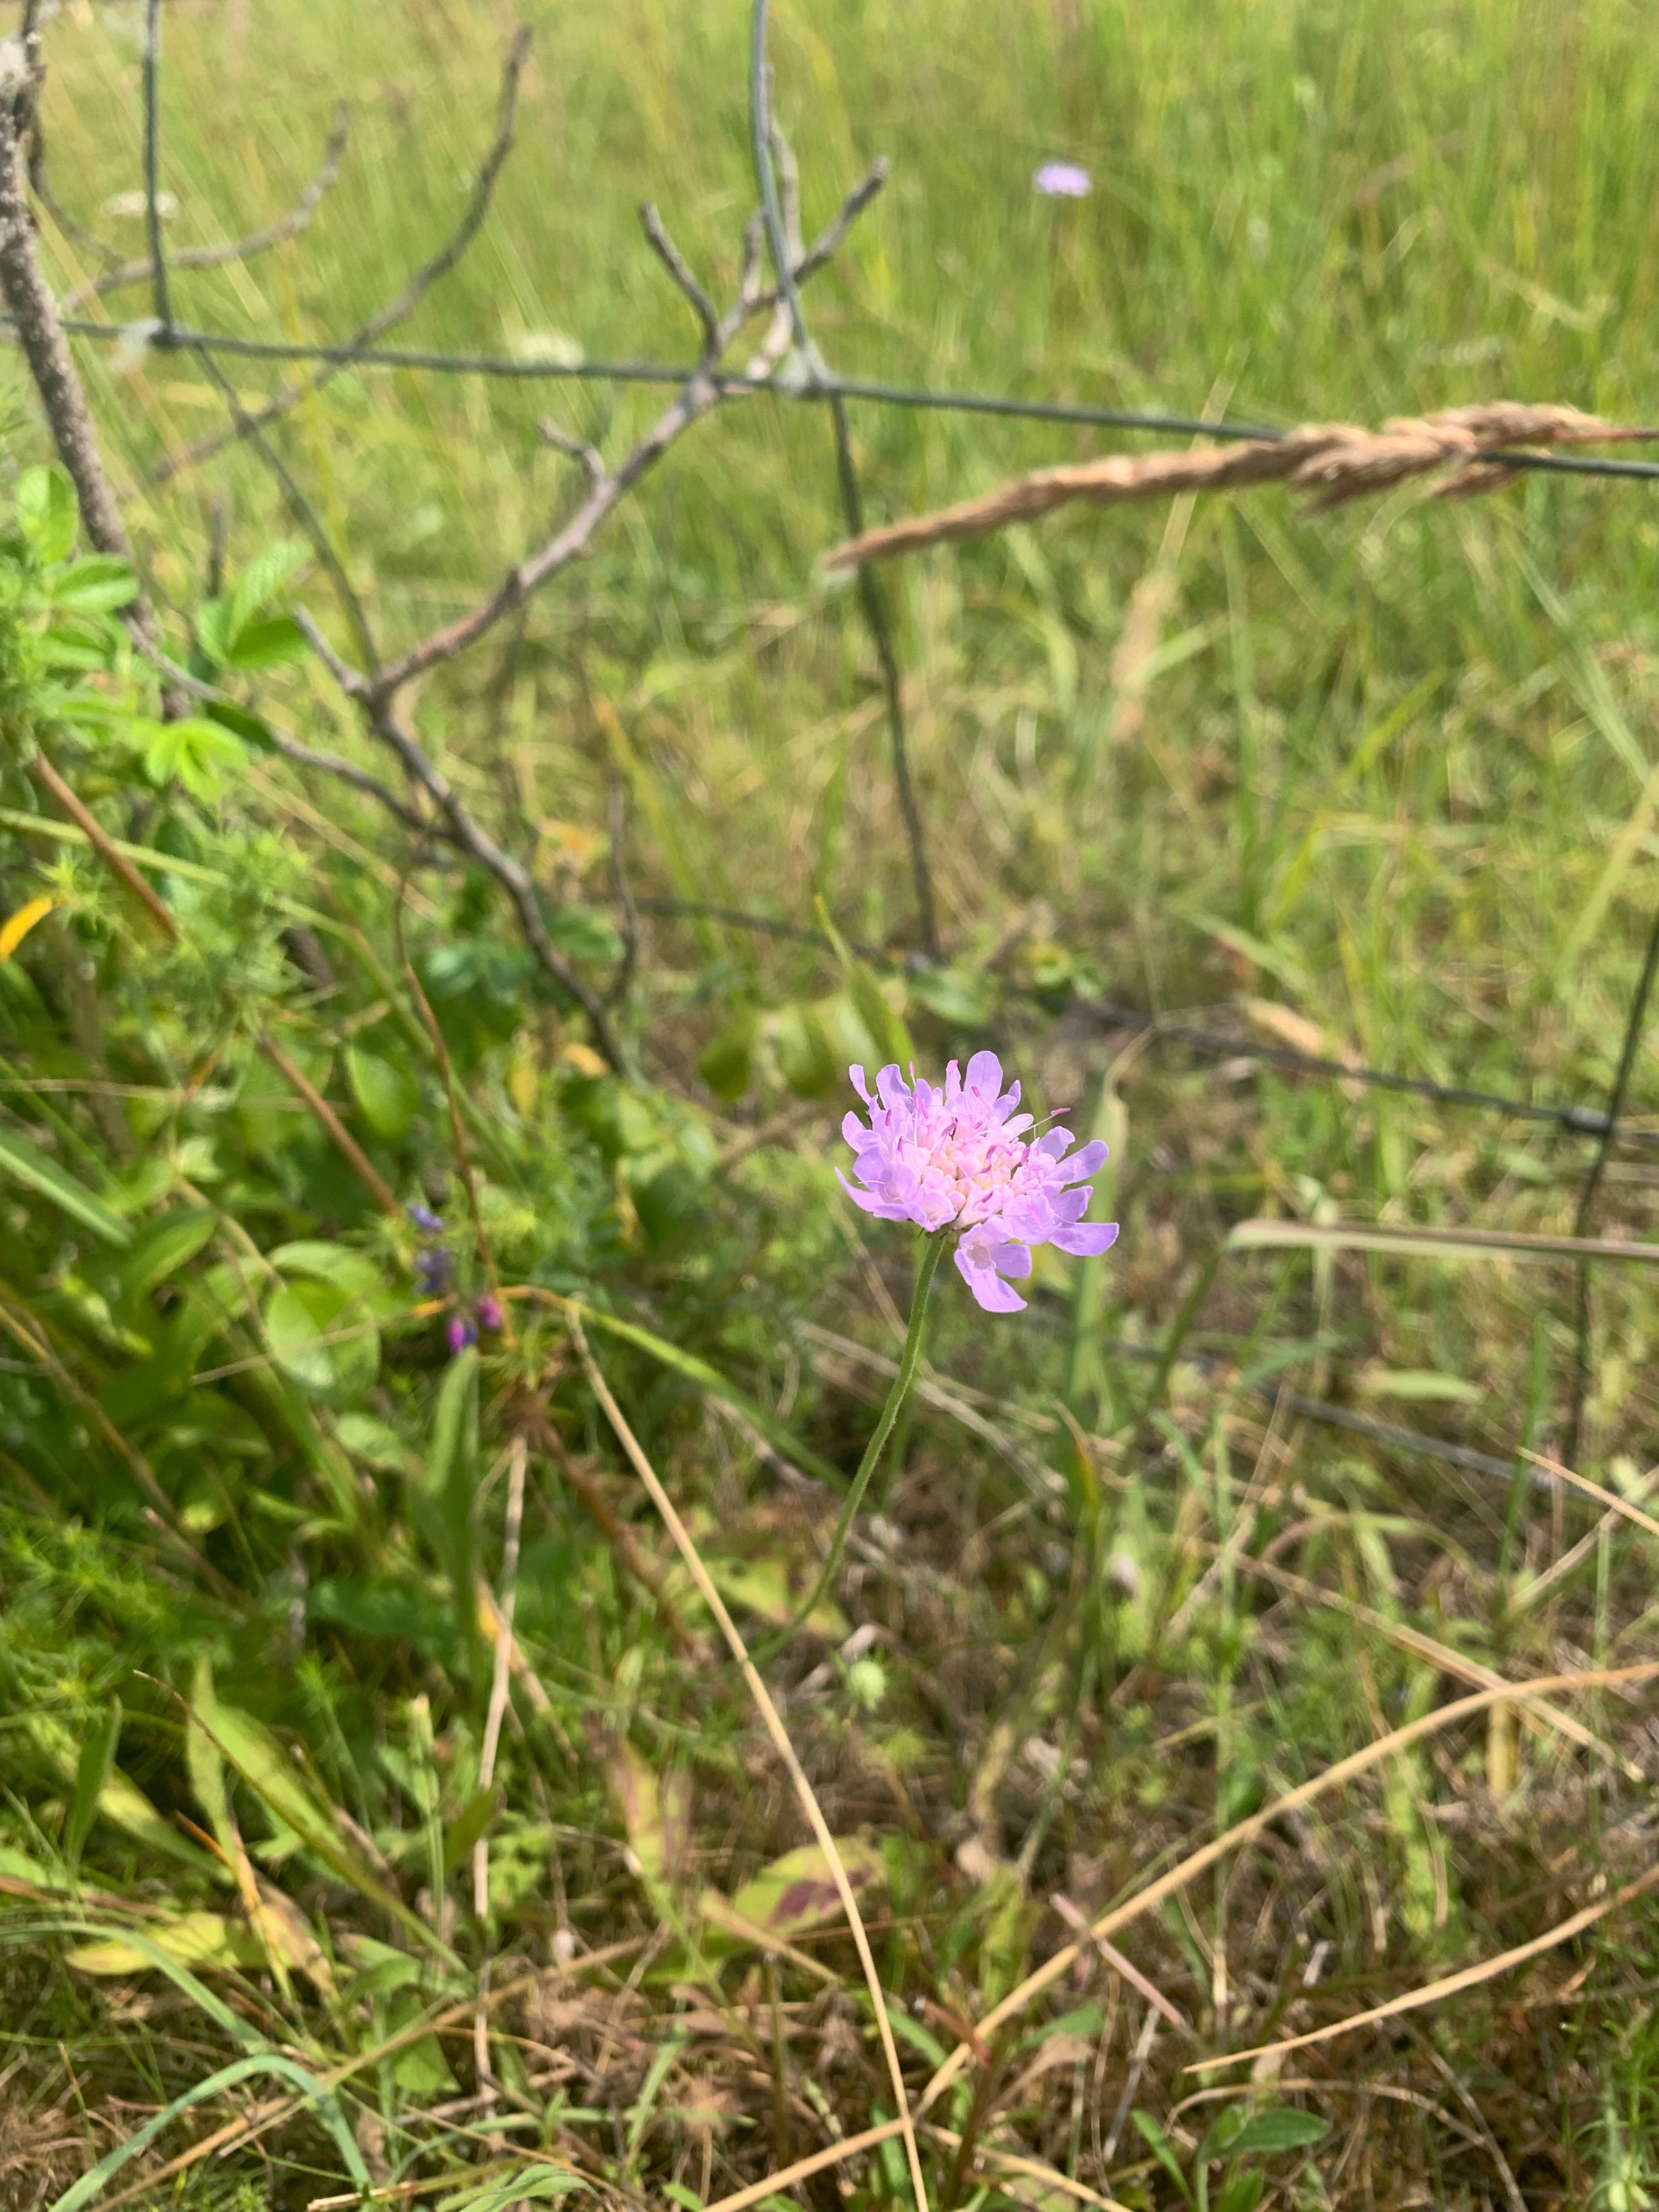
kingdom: Plantae
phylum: Tracheophyta
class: Magnoliopsida
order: Dipsacales
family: Caprifoliaceae
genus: Scabiosa
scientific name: Scabiosa columbaria
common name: Due-skabiose
